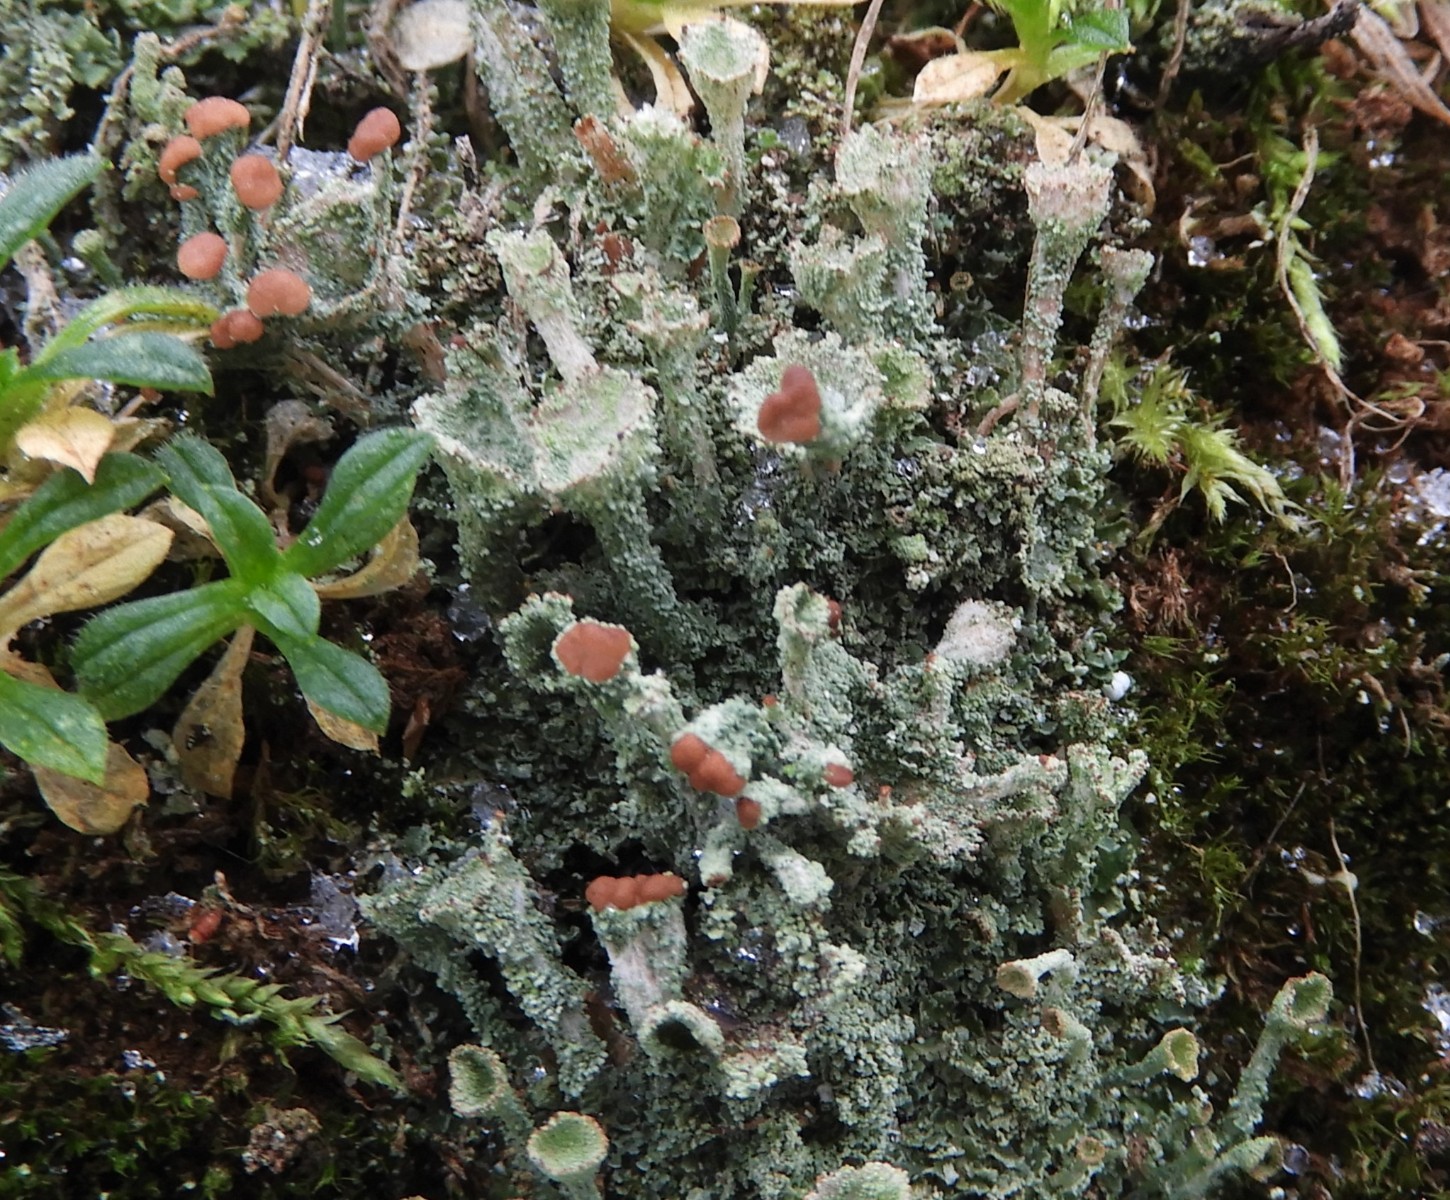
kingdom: Fungi
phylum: Ascomycota
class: Lecanoromycetes
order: Lecanorales
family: Cladoniaceae
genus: Cladonia
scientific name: Cladonia
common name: brungrøn bægerlav
